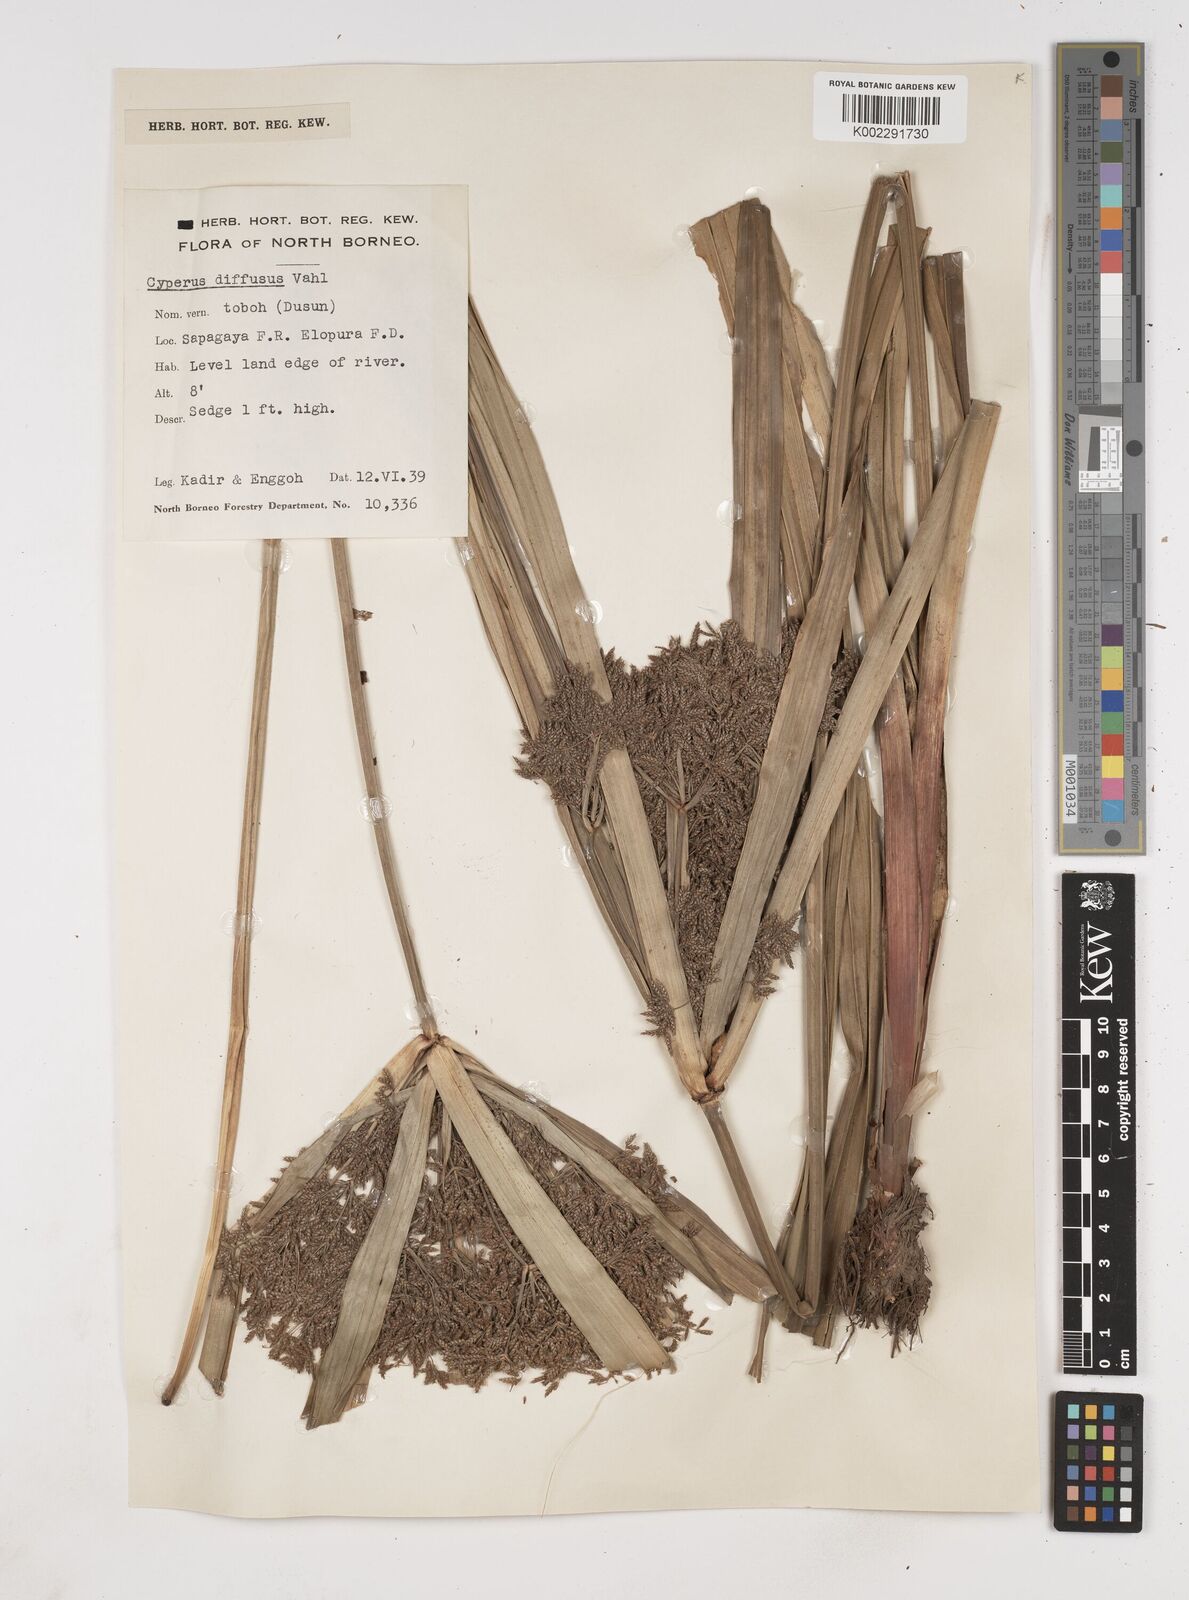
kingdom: Plantae
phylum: Tracheophyta
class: Liliopsida
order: Poales
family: Cyperaceae
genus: Cyperus
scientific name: Cyperus diffusus
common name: Dwarf umbrella grass
